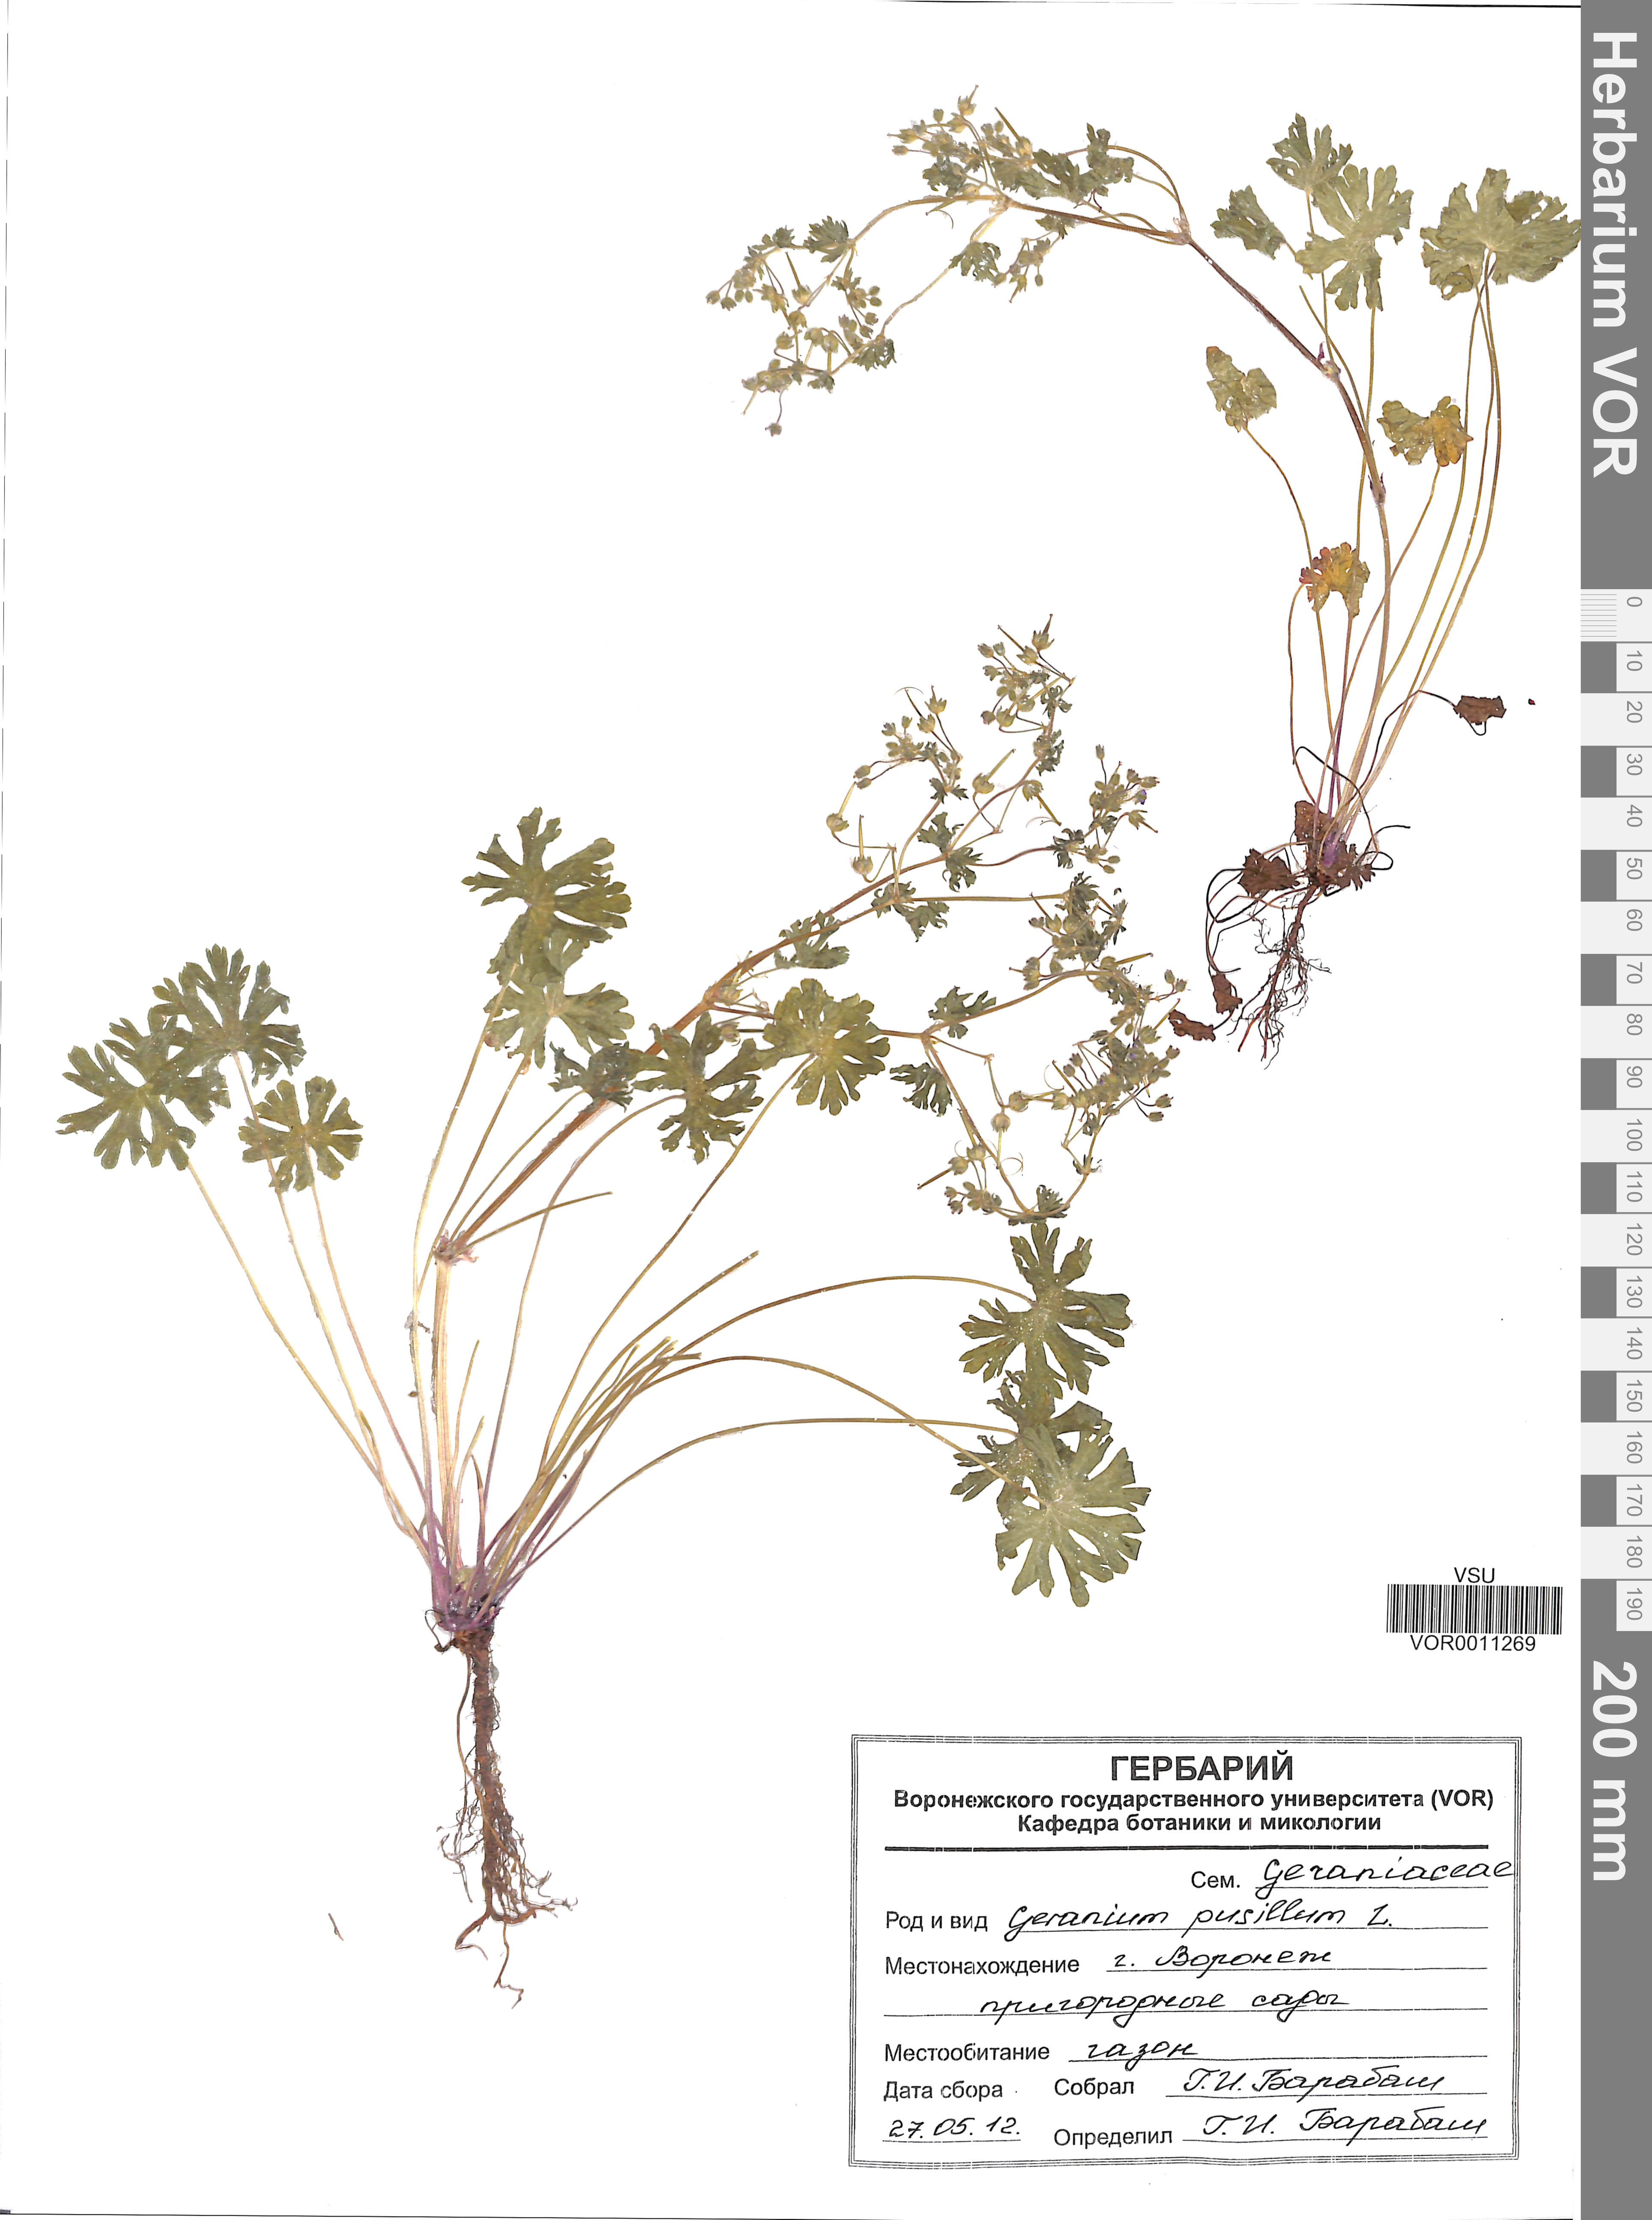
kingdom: Plantae
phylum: Tracheophyta
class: Magnoliopsida
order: Geraniales
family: Geraniaceae
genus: Geranium
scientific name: Geranium pusillum
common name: Small geranium
